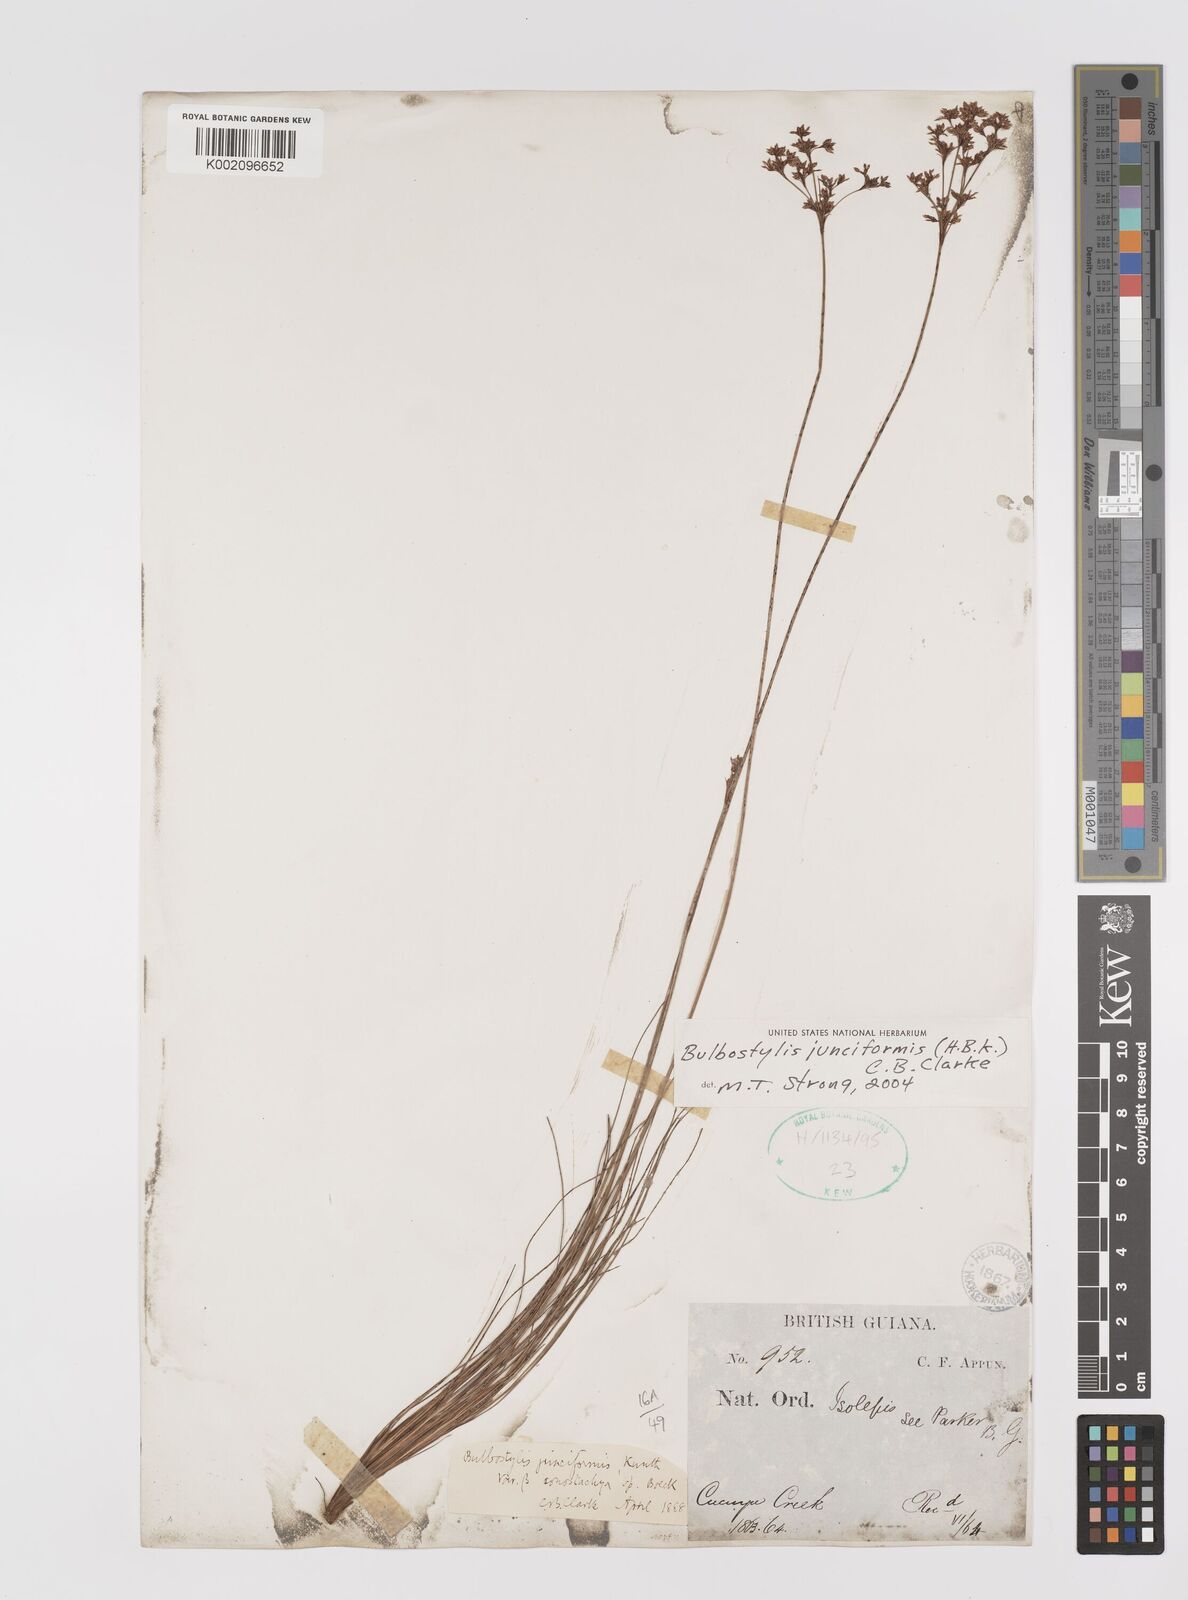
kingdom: Plantae
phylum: Tracheophyta
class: Liliopsida
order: Poales
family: Cyperaceae
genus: Bulbostylis
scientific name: Bulbostylis junciformis
